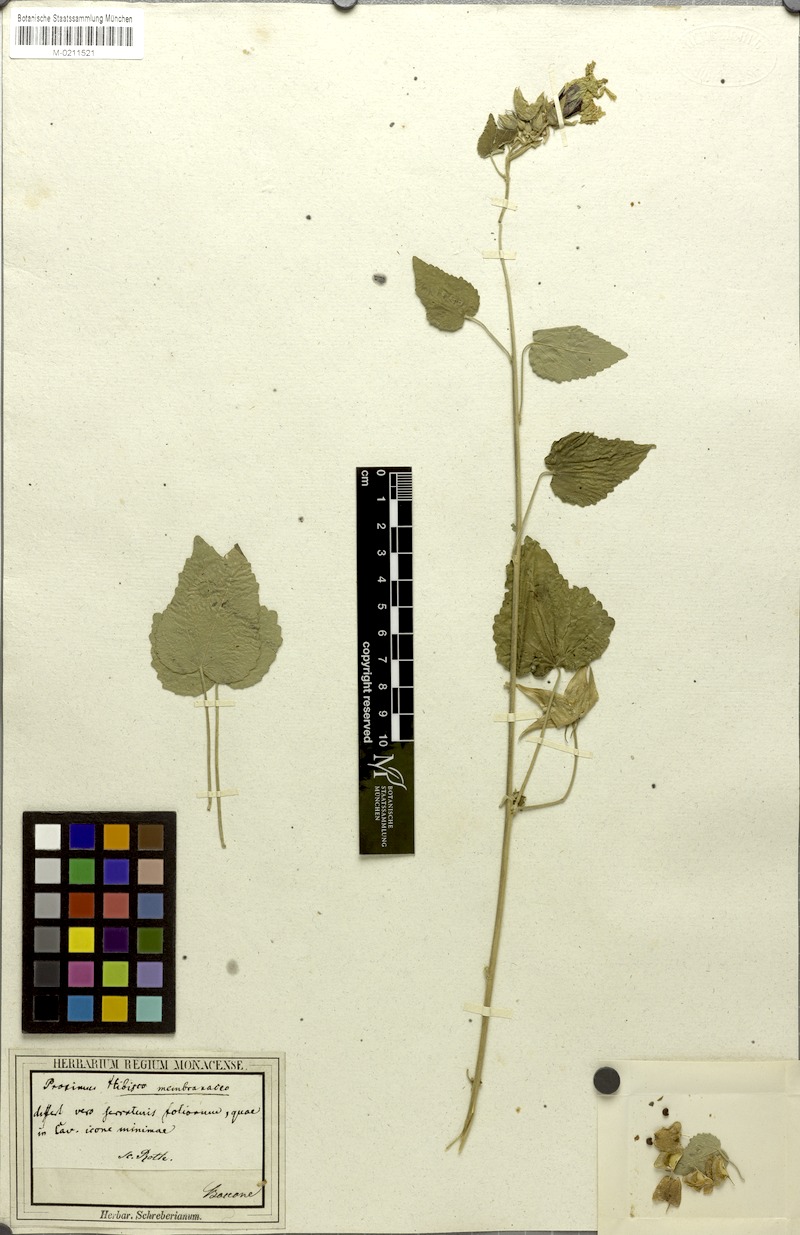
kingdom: Plantae
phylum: Tracheophyta
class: Magnoliopsida
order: Malvales
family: Malvaceae
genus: Hibiscus
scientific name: Hibiscus
